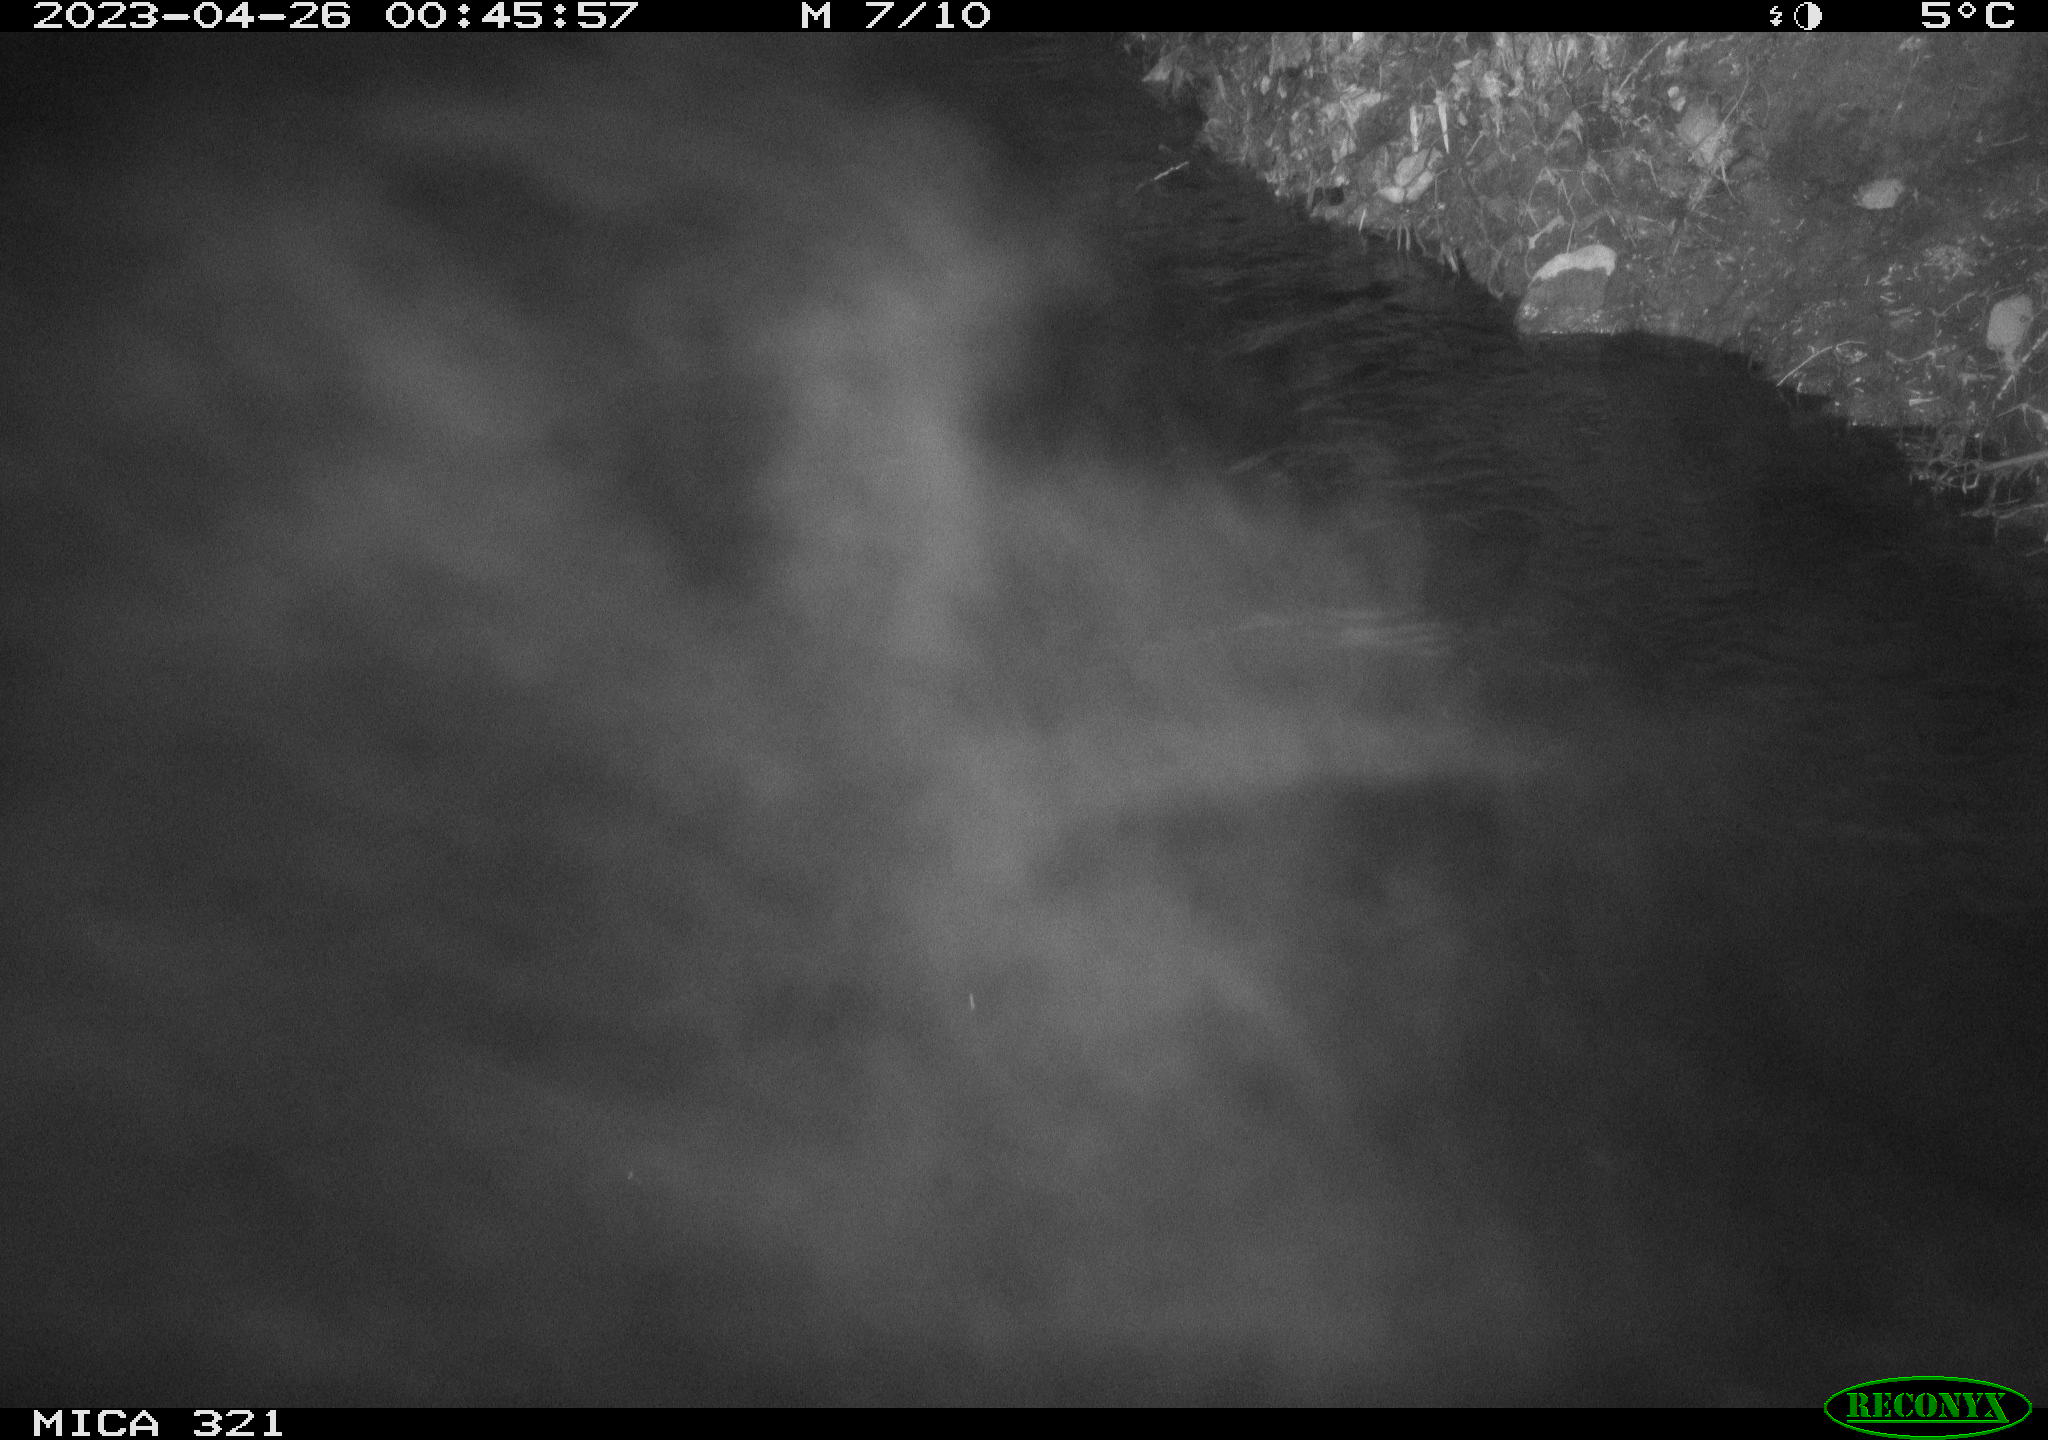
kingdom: Animalia
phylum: Chordata
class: Aves
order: Anseriformes
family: Anatidae
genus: Anas
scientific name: Anas
